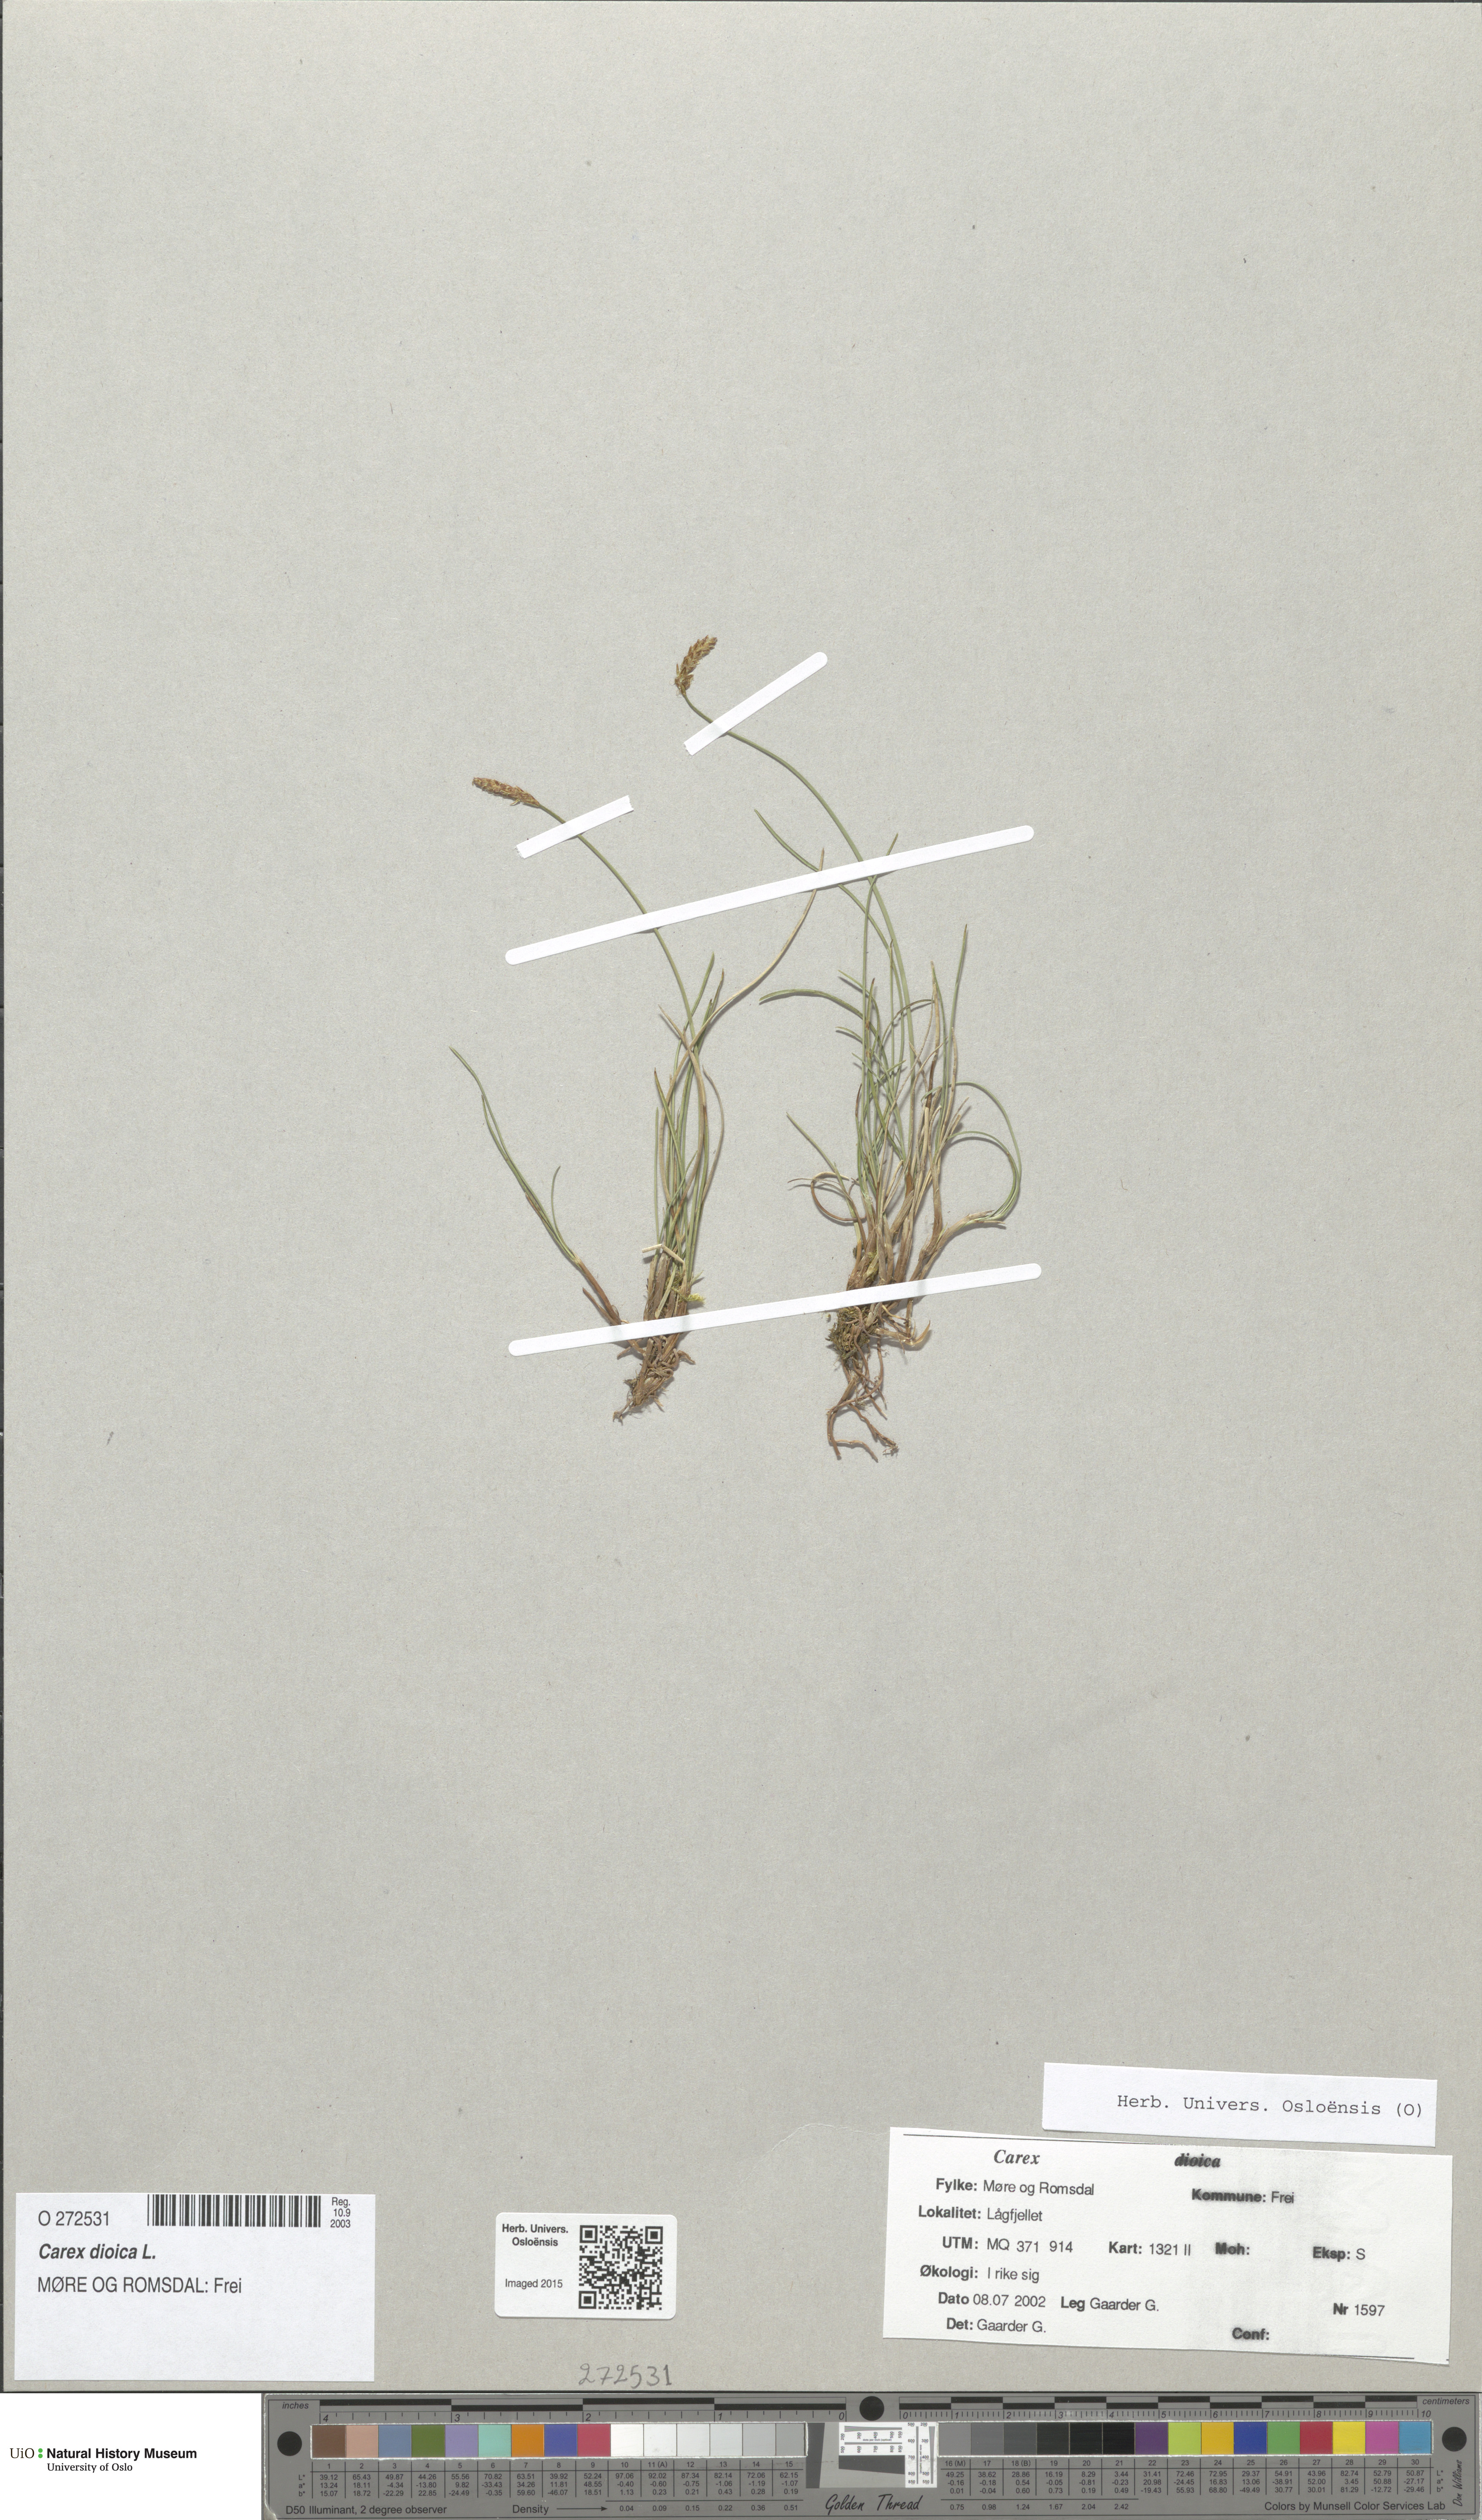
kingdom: Plantae
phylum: Tracheophyta
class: Liliopsida
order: Poales
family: Cyperaceae
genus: Carex
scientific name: Carex dioica
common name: Dioecious sedge
